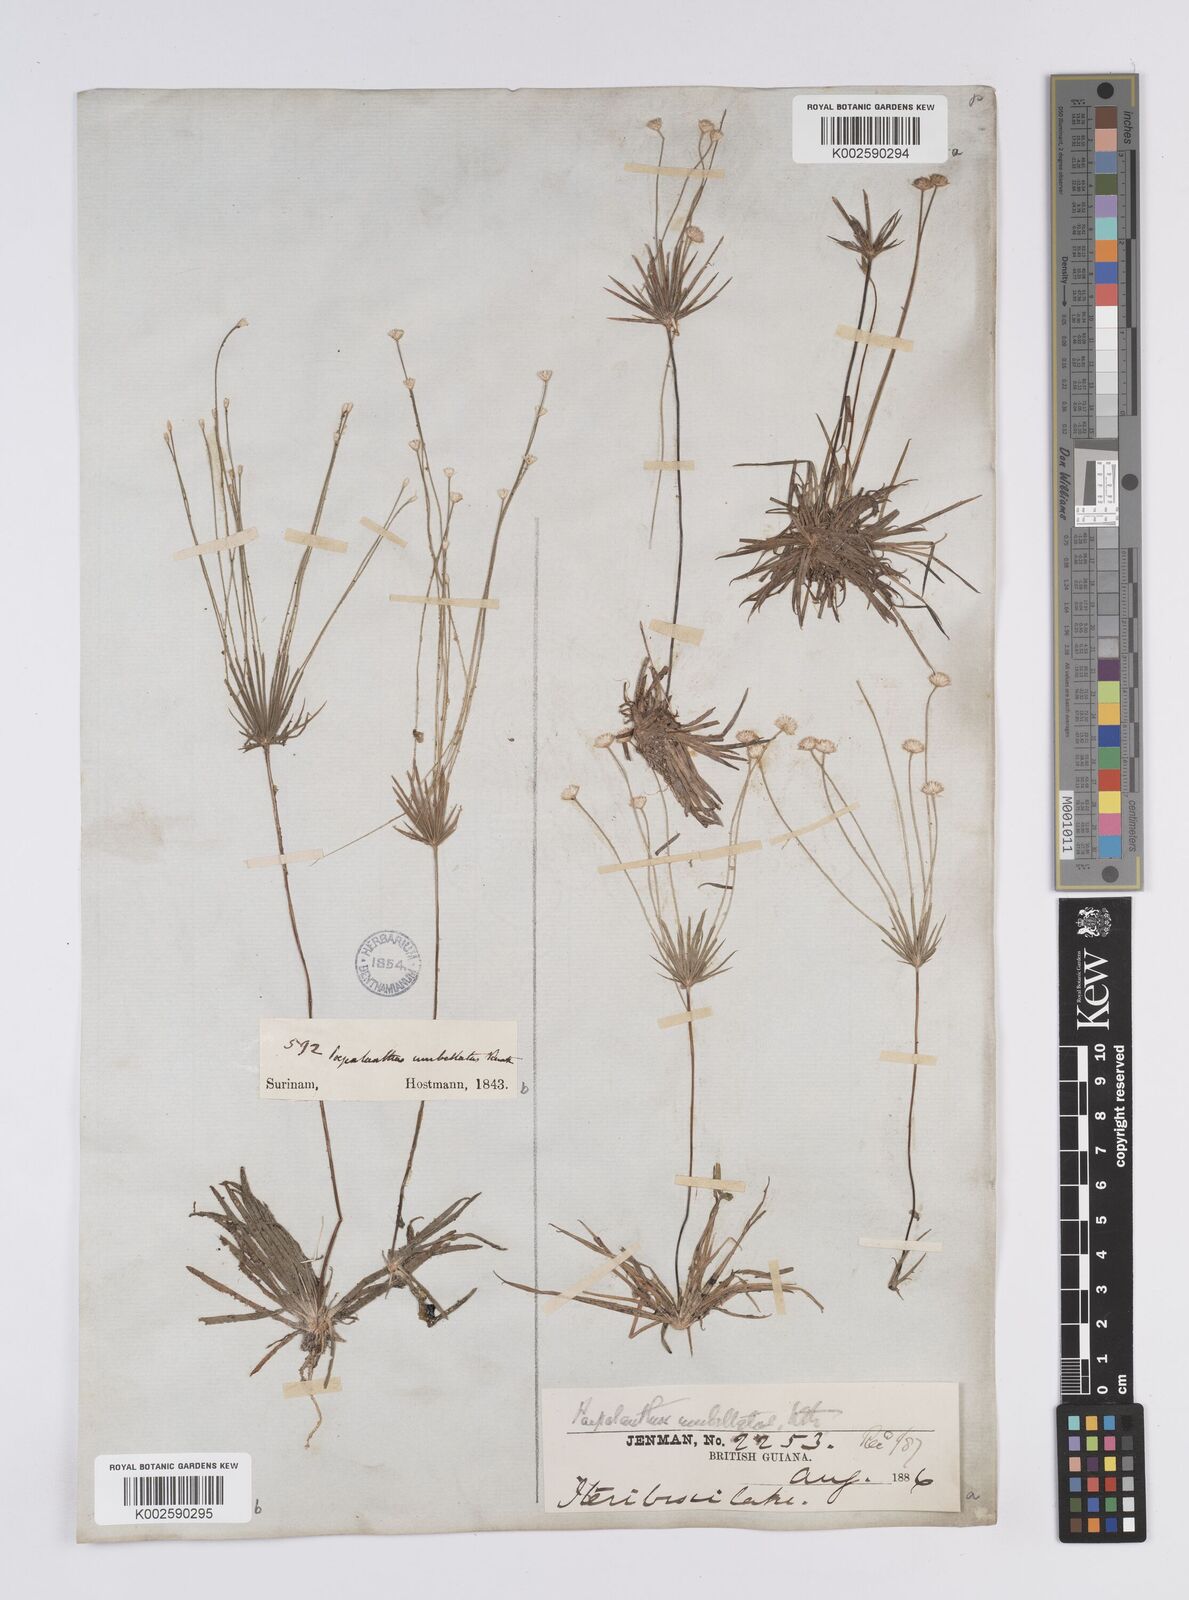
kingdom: Plantae
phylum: Tracheophyta
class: Liliopsida
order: Poales
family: Eriocaulaceae
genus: Syngonanthus
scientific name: Syngonanthus umbellatus
